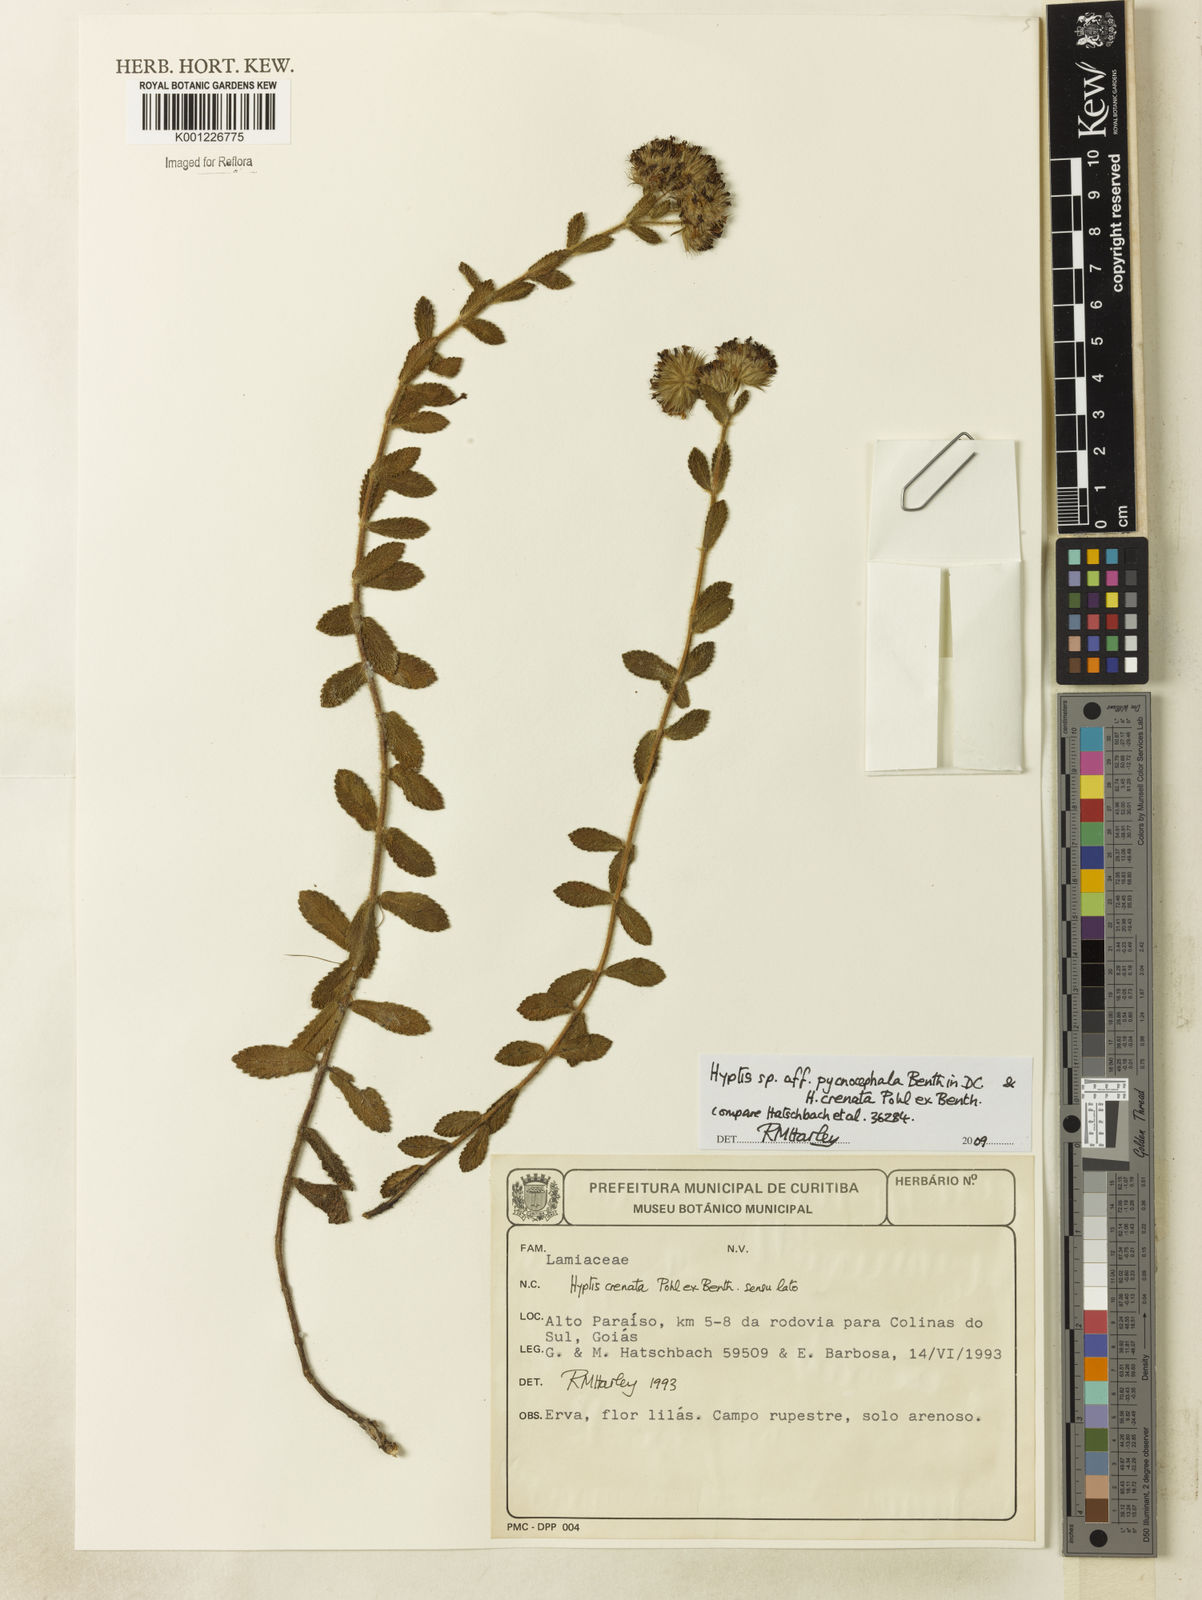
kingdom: Plantae
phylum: Tracheophyta
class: Magnoliopsida
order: Lamiales
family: Lamiaceae
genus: Hyptis
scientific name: Hyptis pycnocephala
